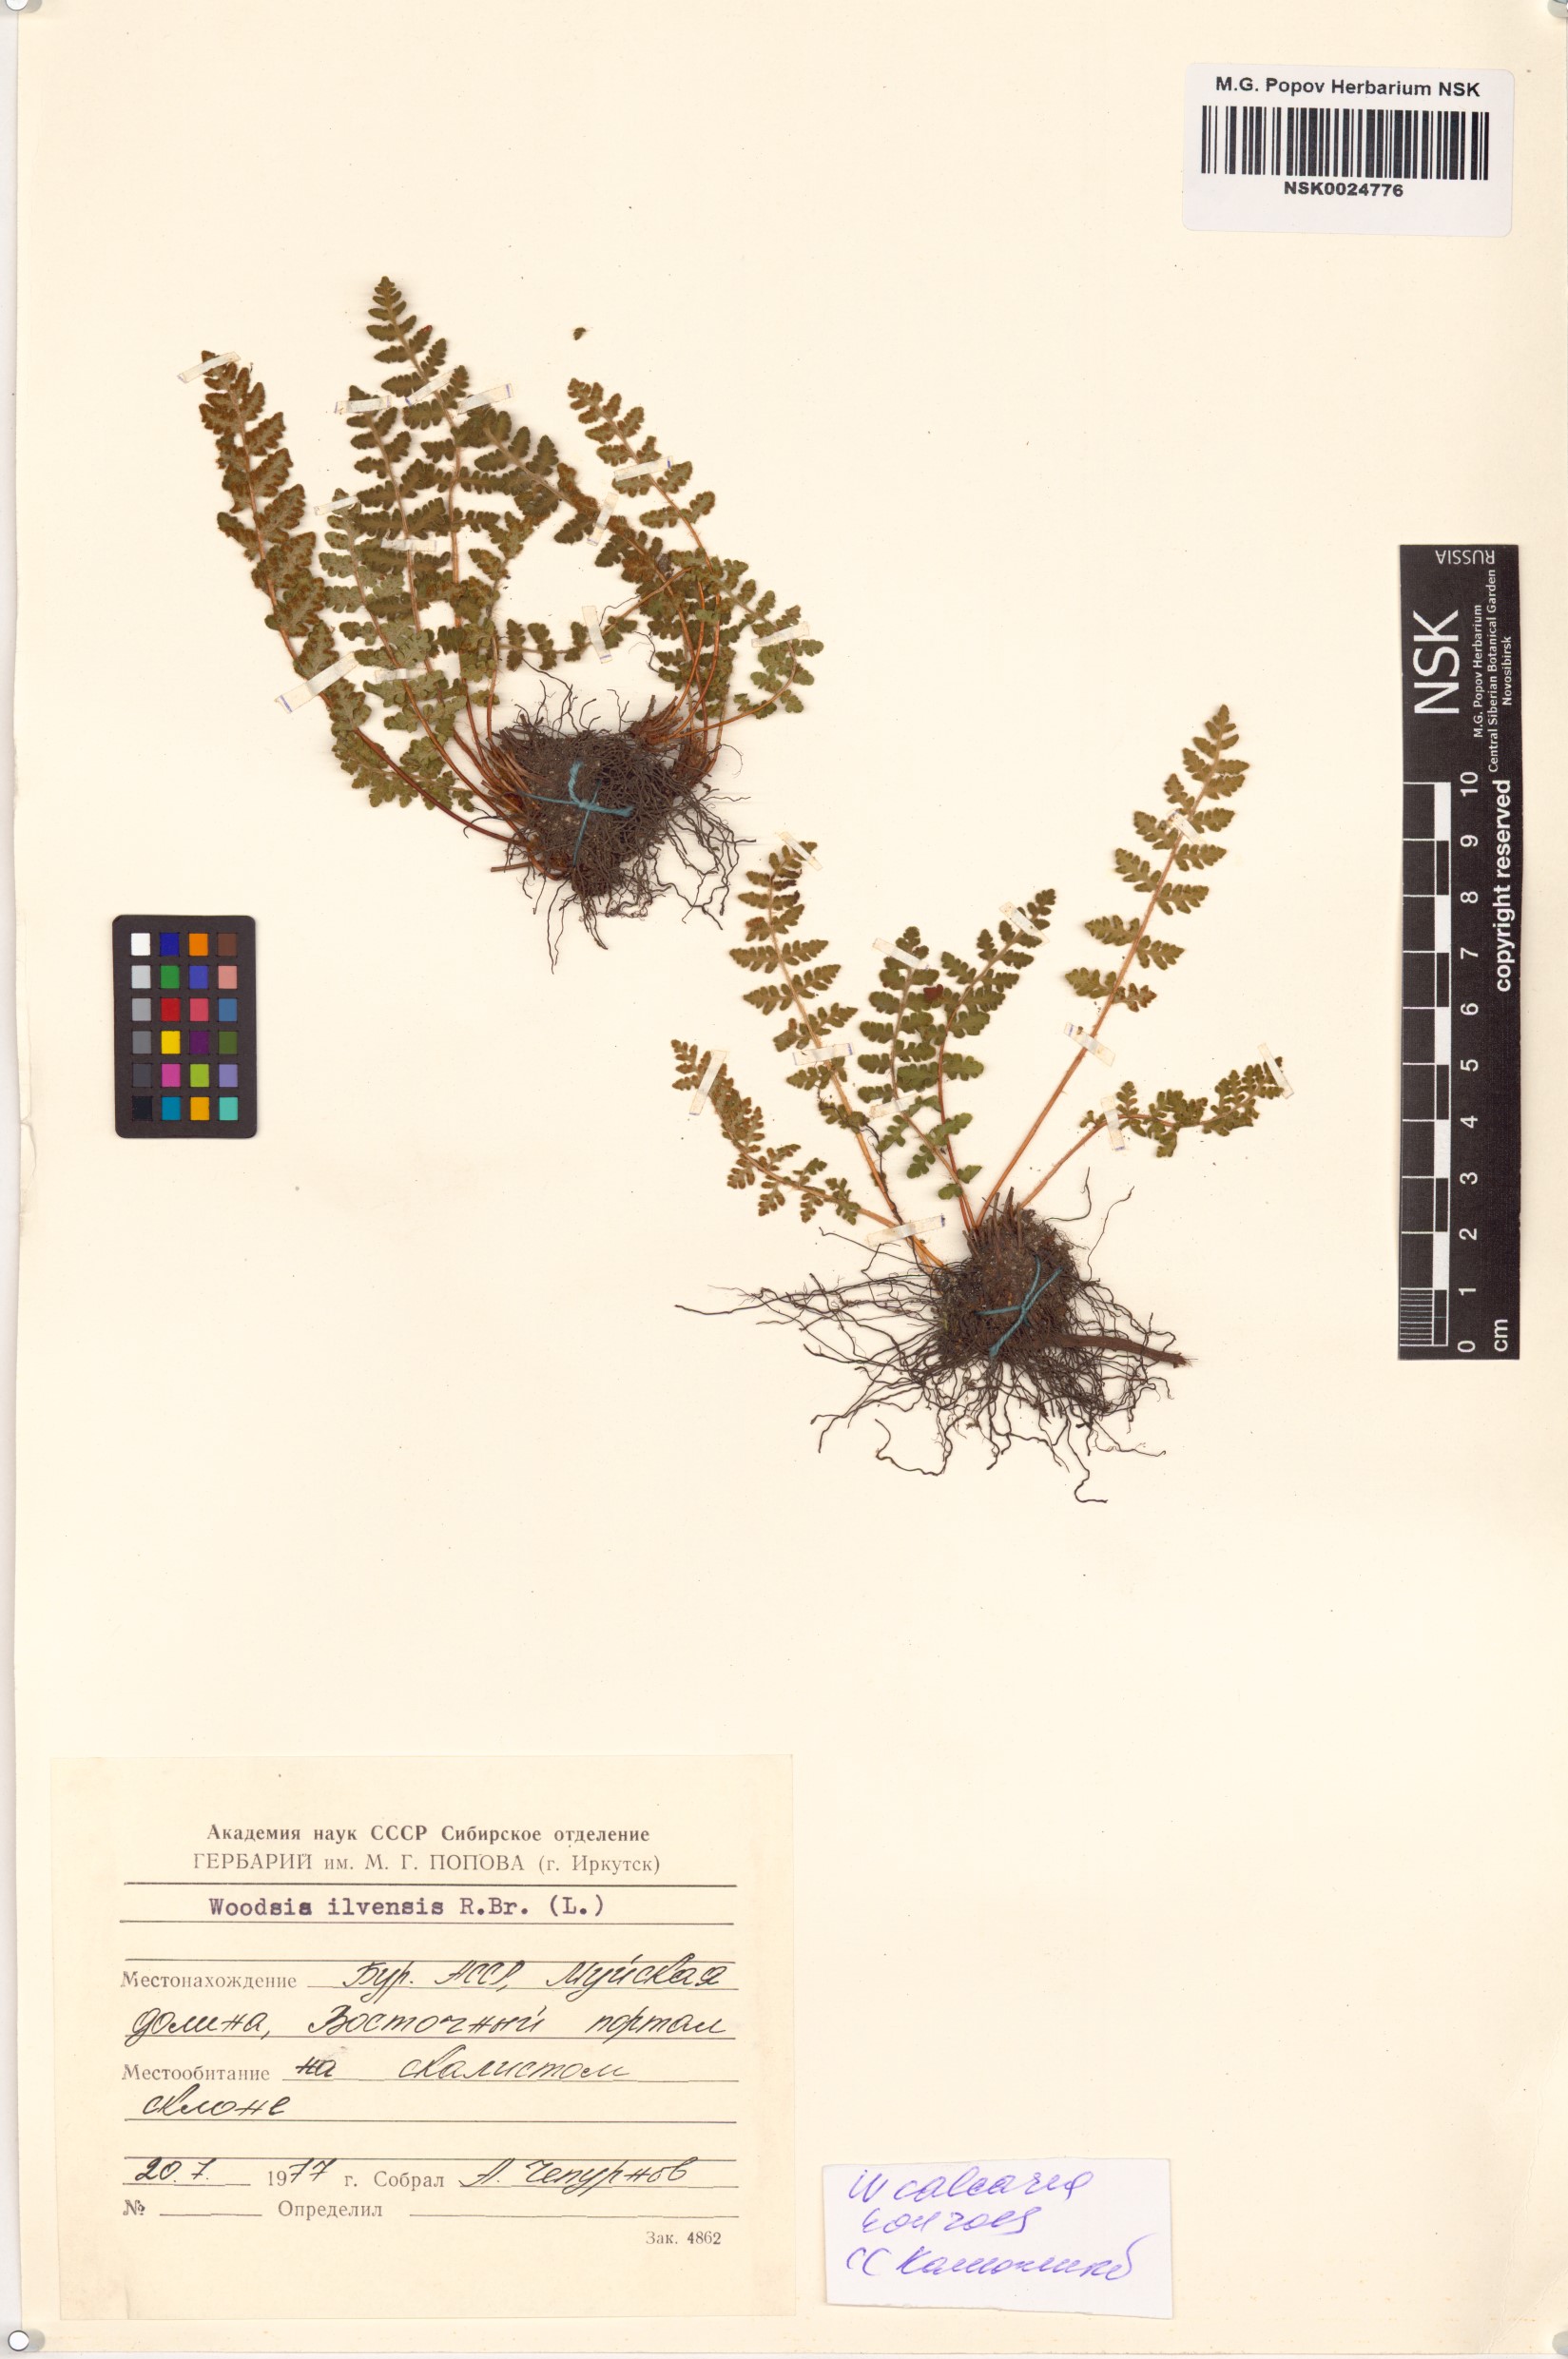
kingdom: Plantae
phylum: Tracheophyta
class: Polypodiopsida
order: Polypodiales
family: Woodsiaceae
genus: Woodsia
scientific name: Woodsia calcarea
